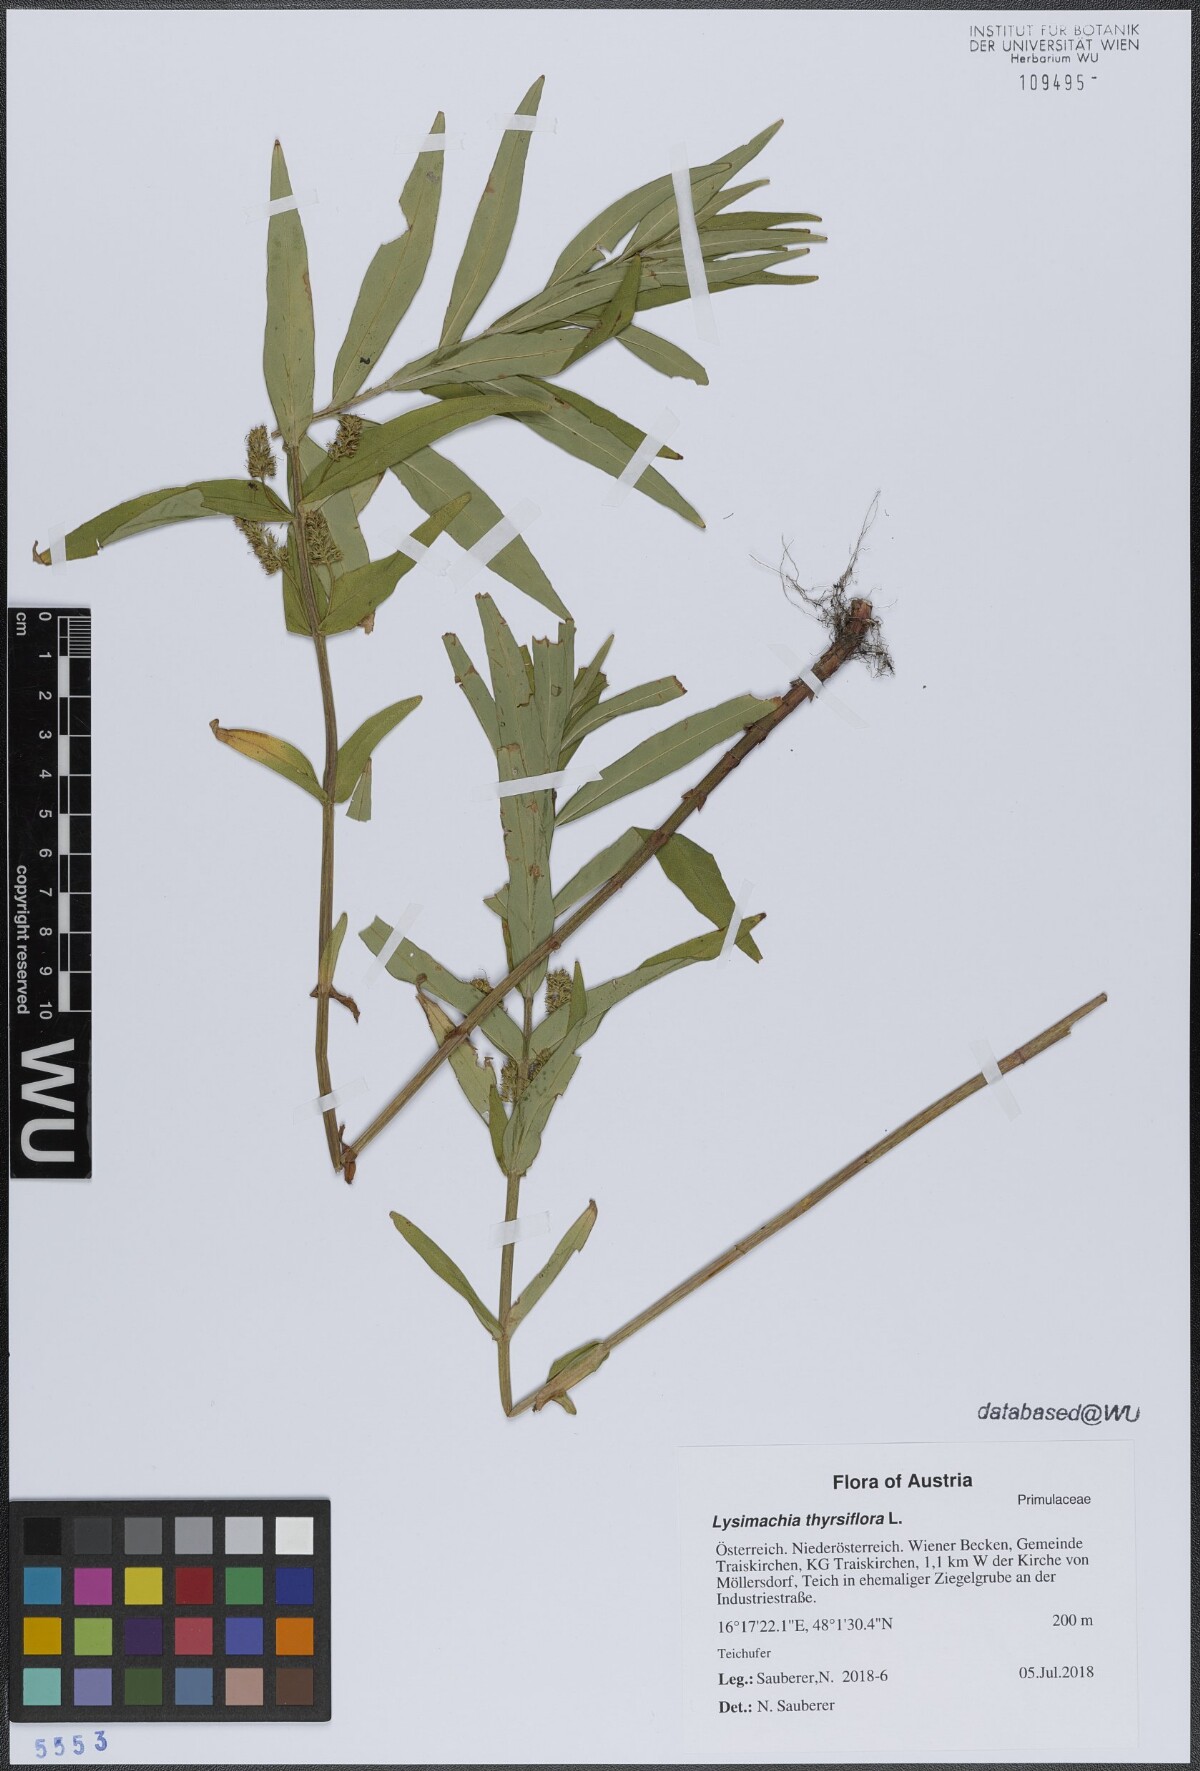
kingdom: Plantae
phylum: Tracheophyta
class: Magnoliopsida
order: Ericales
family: Primulaceae
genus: Lysimachia
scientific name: Lysimachia thyrsiflora
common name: Tufted loosestrife
